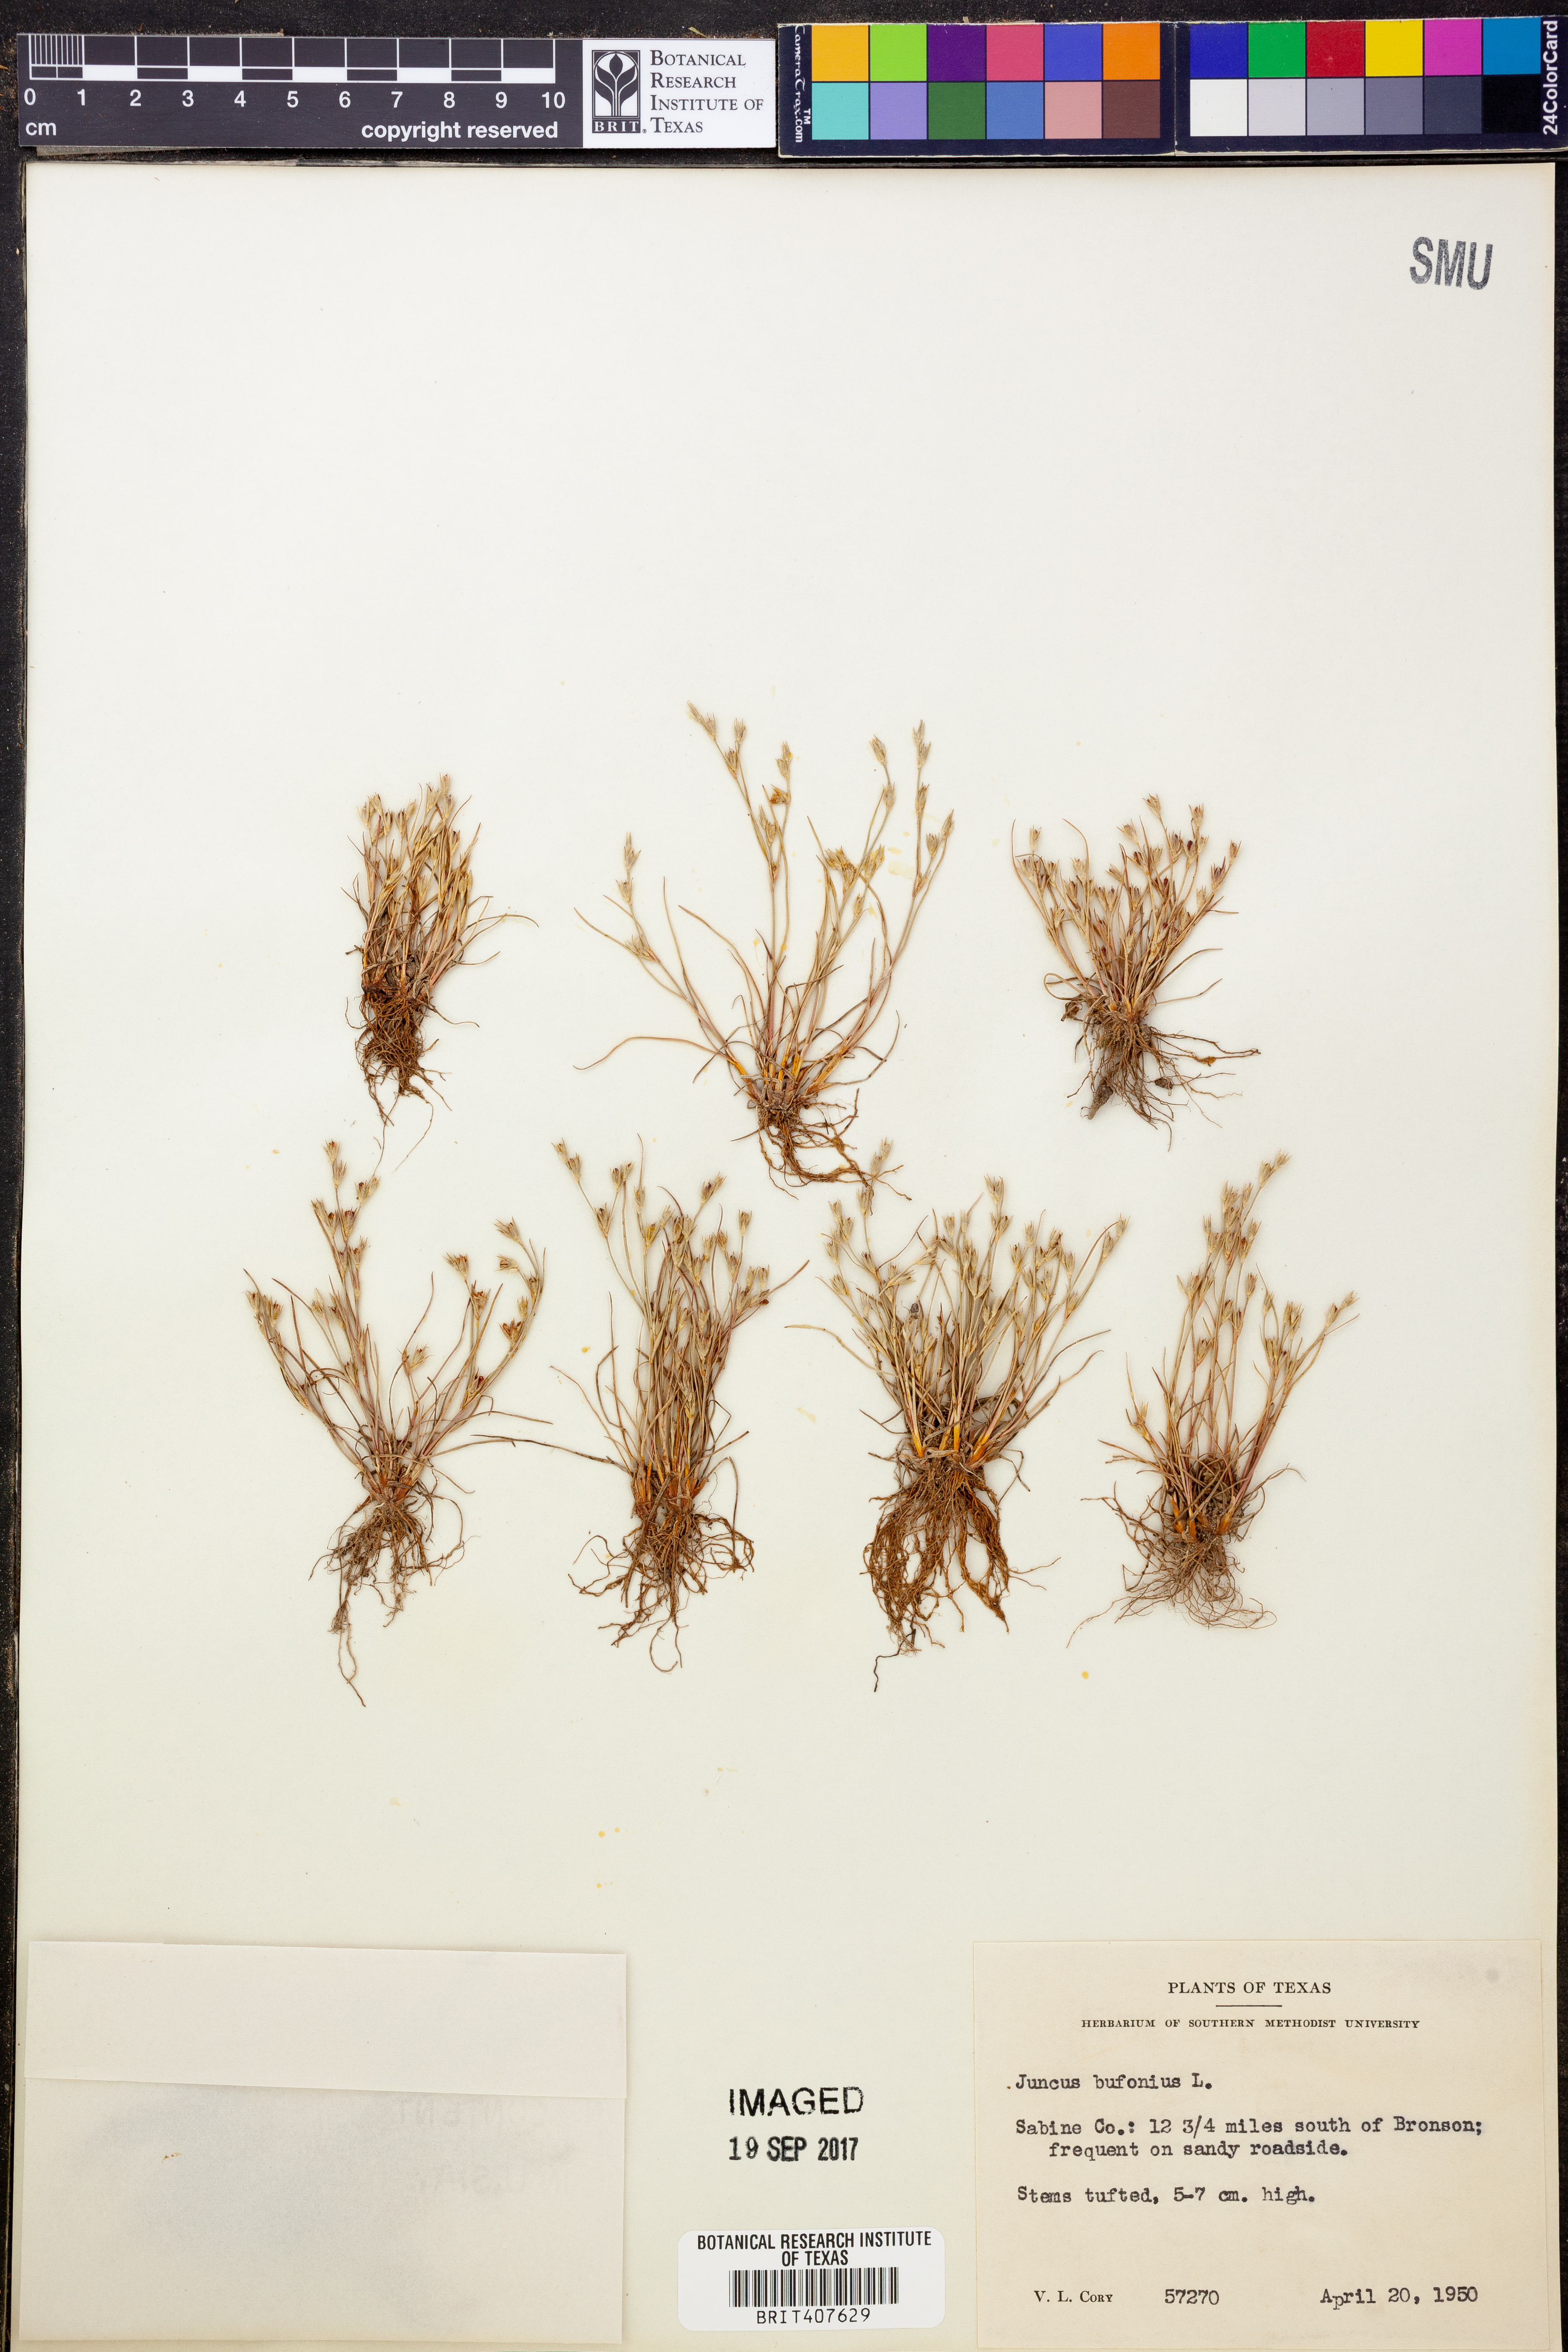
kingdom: Plantae
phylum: Tracheophyta
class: Liliopsida
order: Poales
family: Juncaceae
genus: Juncus
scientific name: Juncus bufonius
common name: Toad rush
